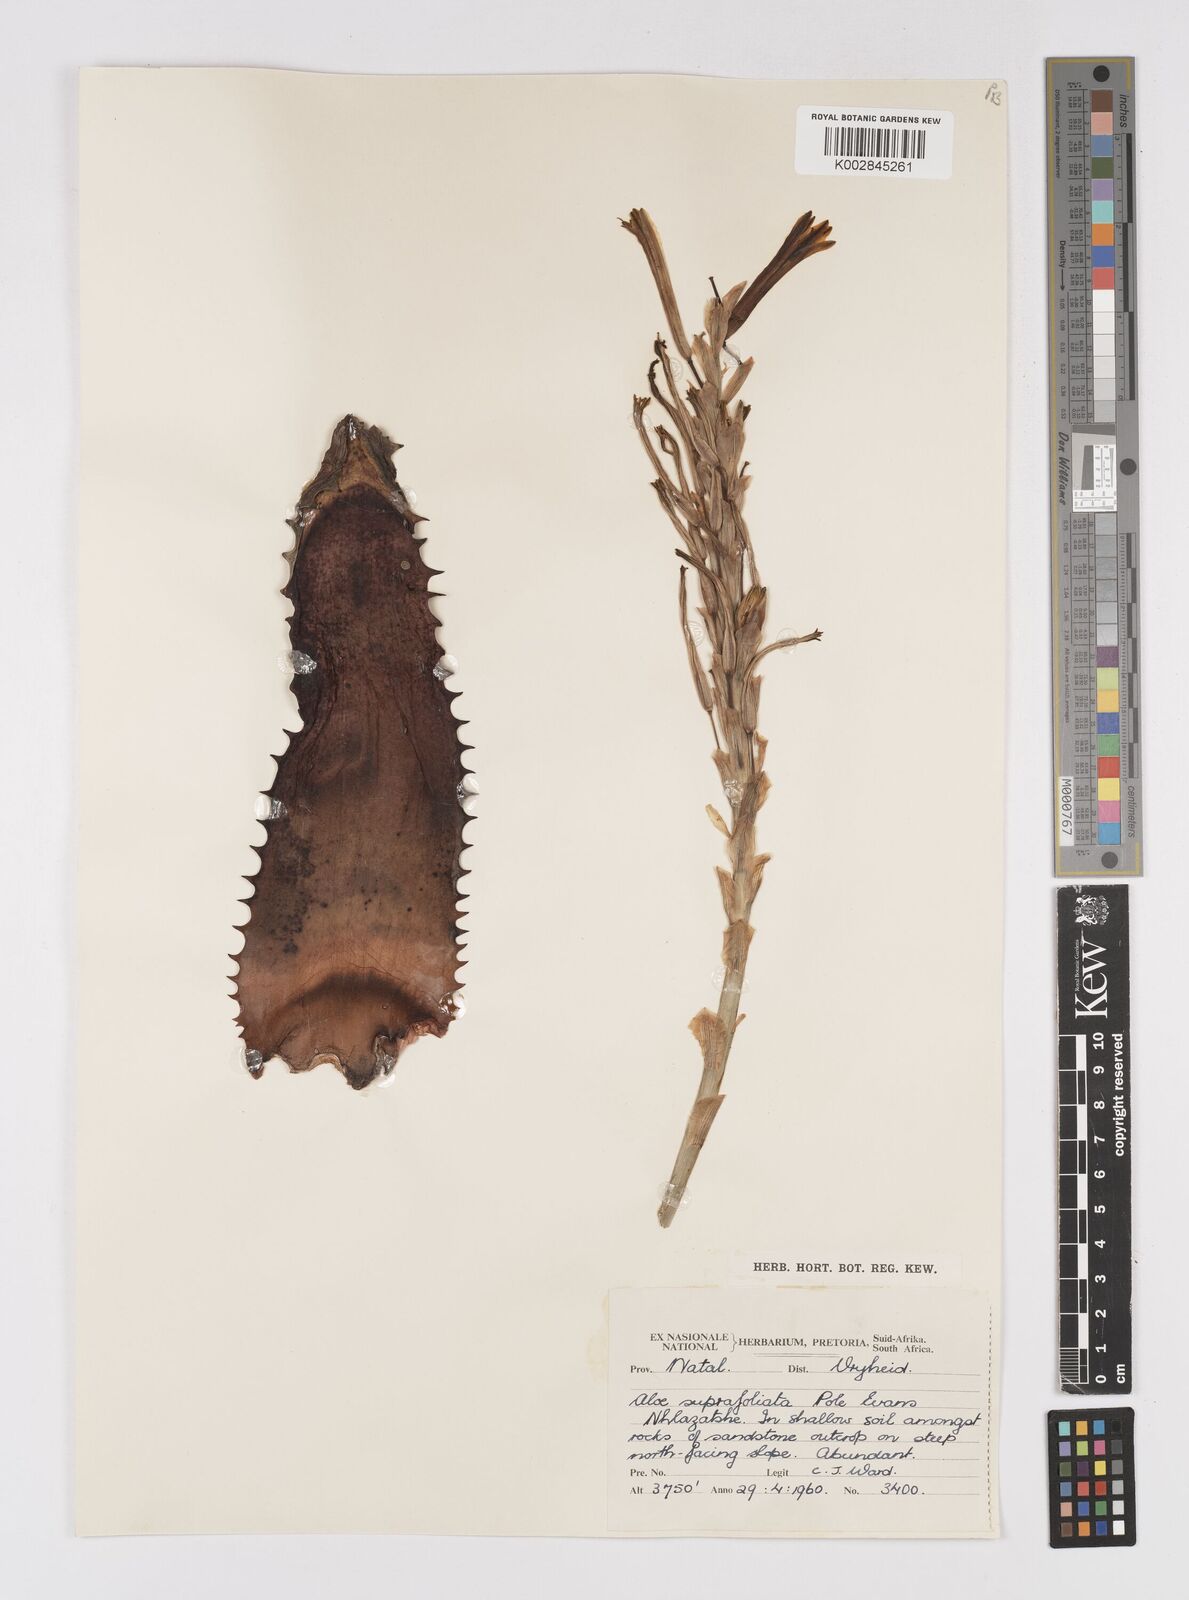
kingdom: Plantae
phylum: Tracheophyta
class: Liliopsida
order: Asparagales
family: Asphodelaceae
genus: Aloe
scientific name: Aloe suprafoliata
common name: Book aloe
